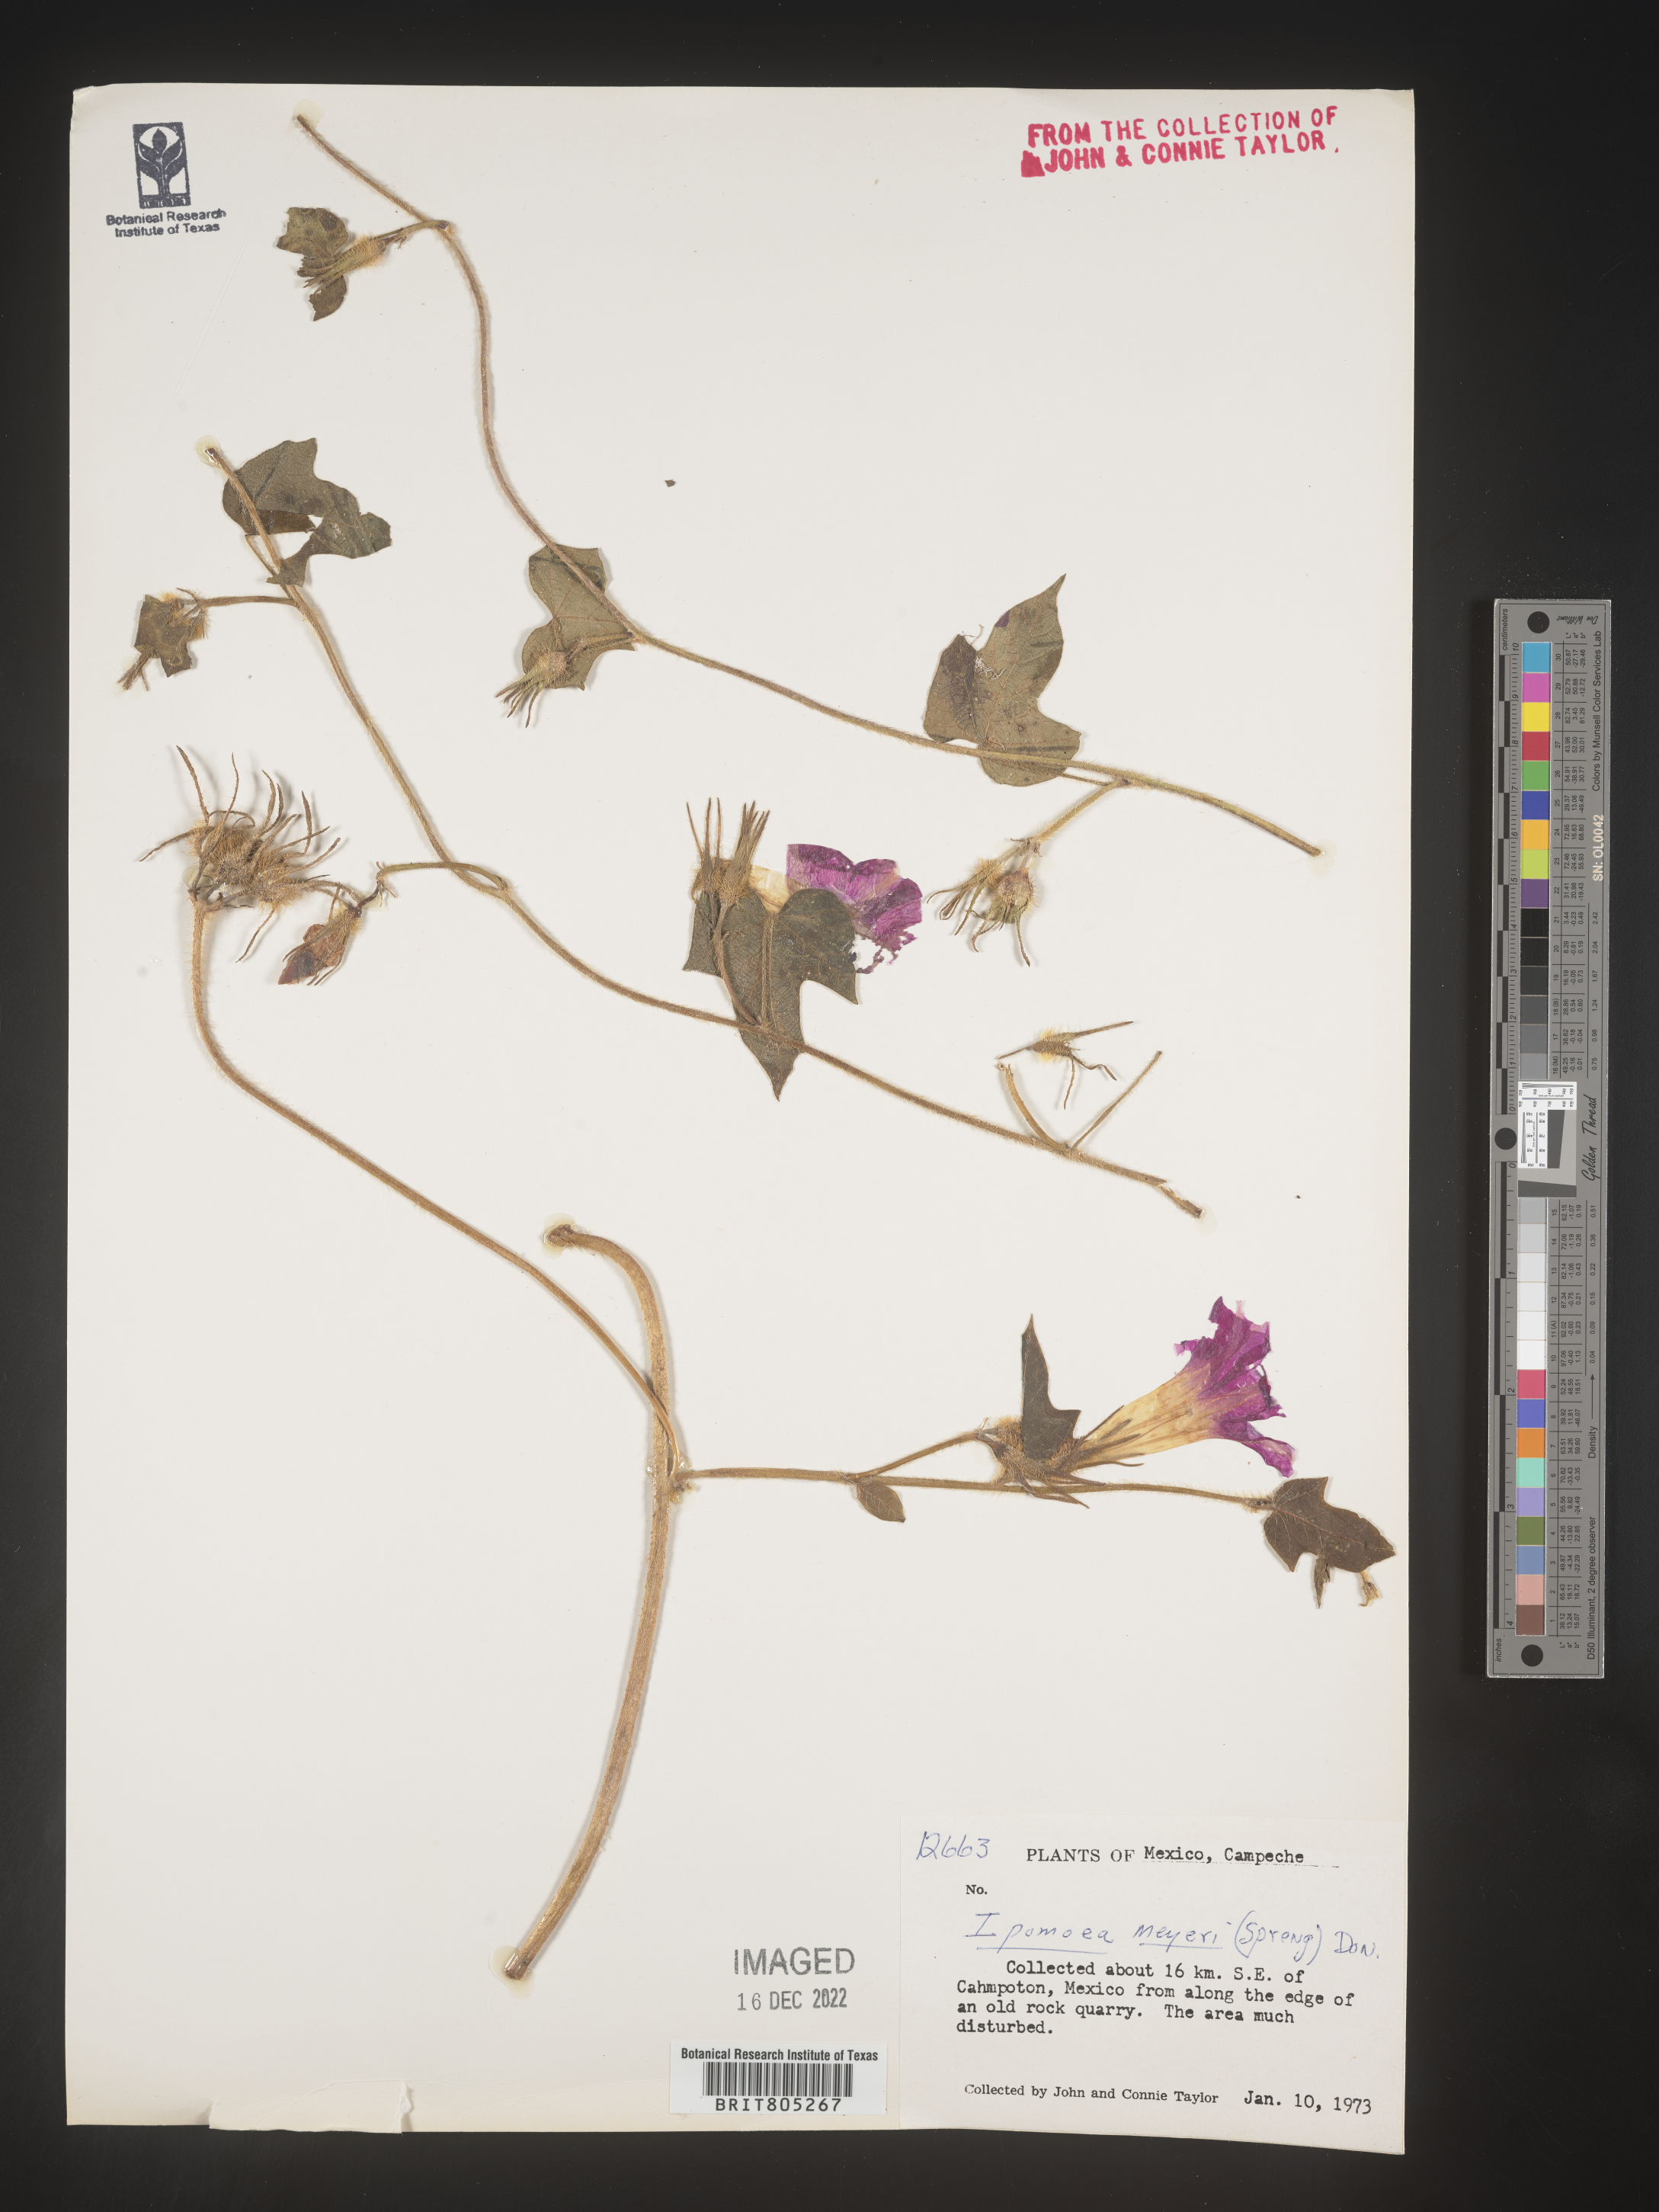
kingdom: Plantae
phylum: Tracheophyta
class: Magnoliopsida
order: Solanales
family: Convolvulaceae
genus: Ipomoea
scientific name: Ipomoea
